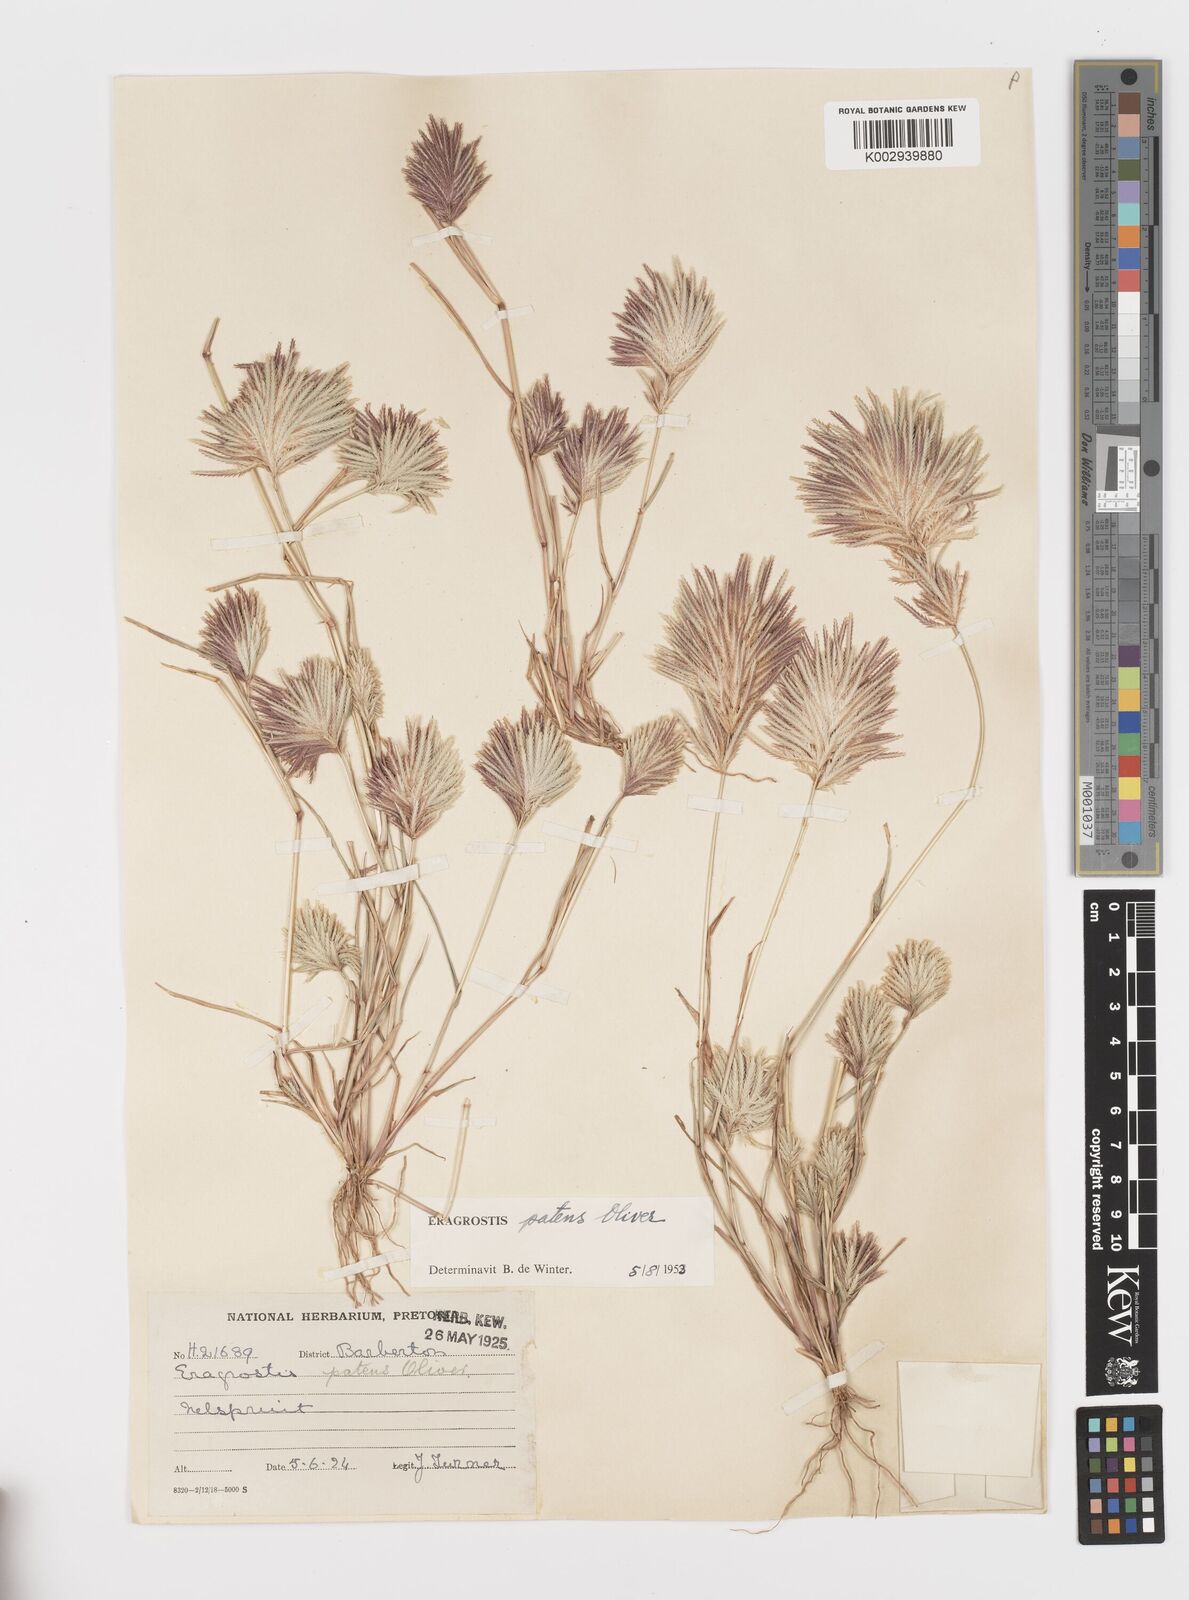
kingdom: Plantae
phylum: Tracheophyta
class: Liliopsida
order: Poales
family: Poaceae
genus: Eragrostis
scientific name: Eragrostis patens
